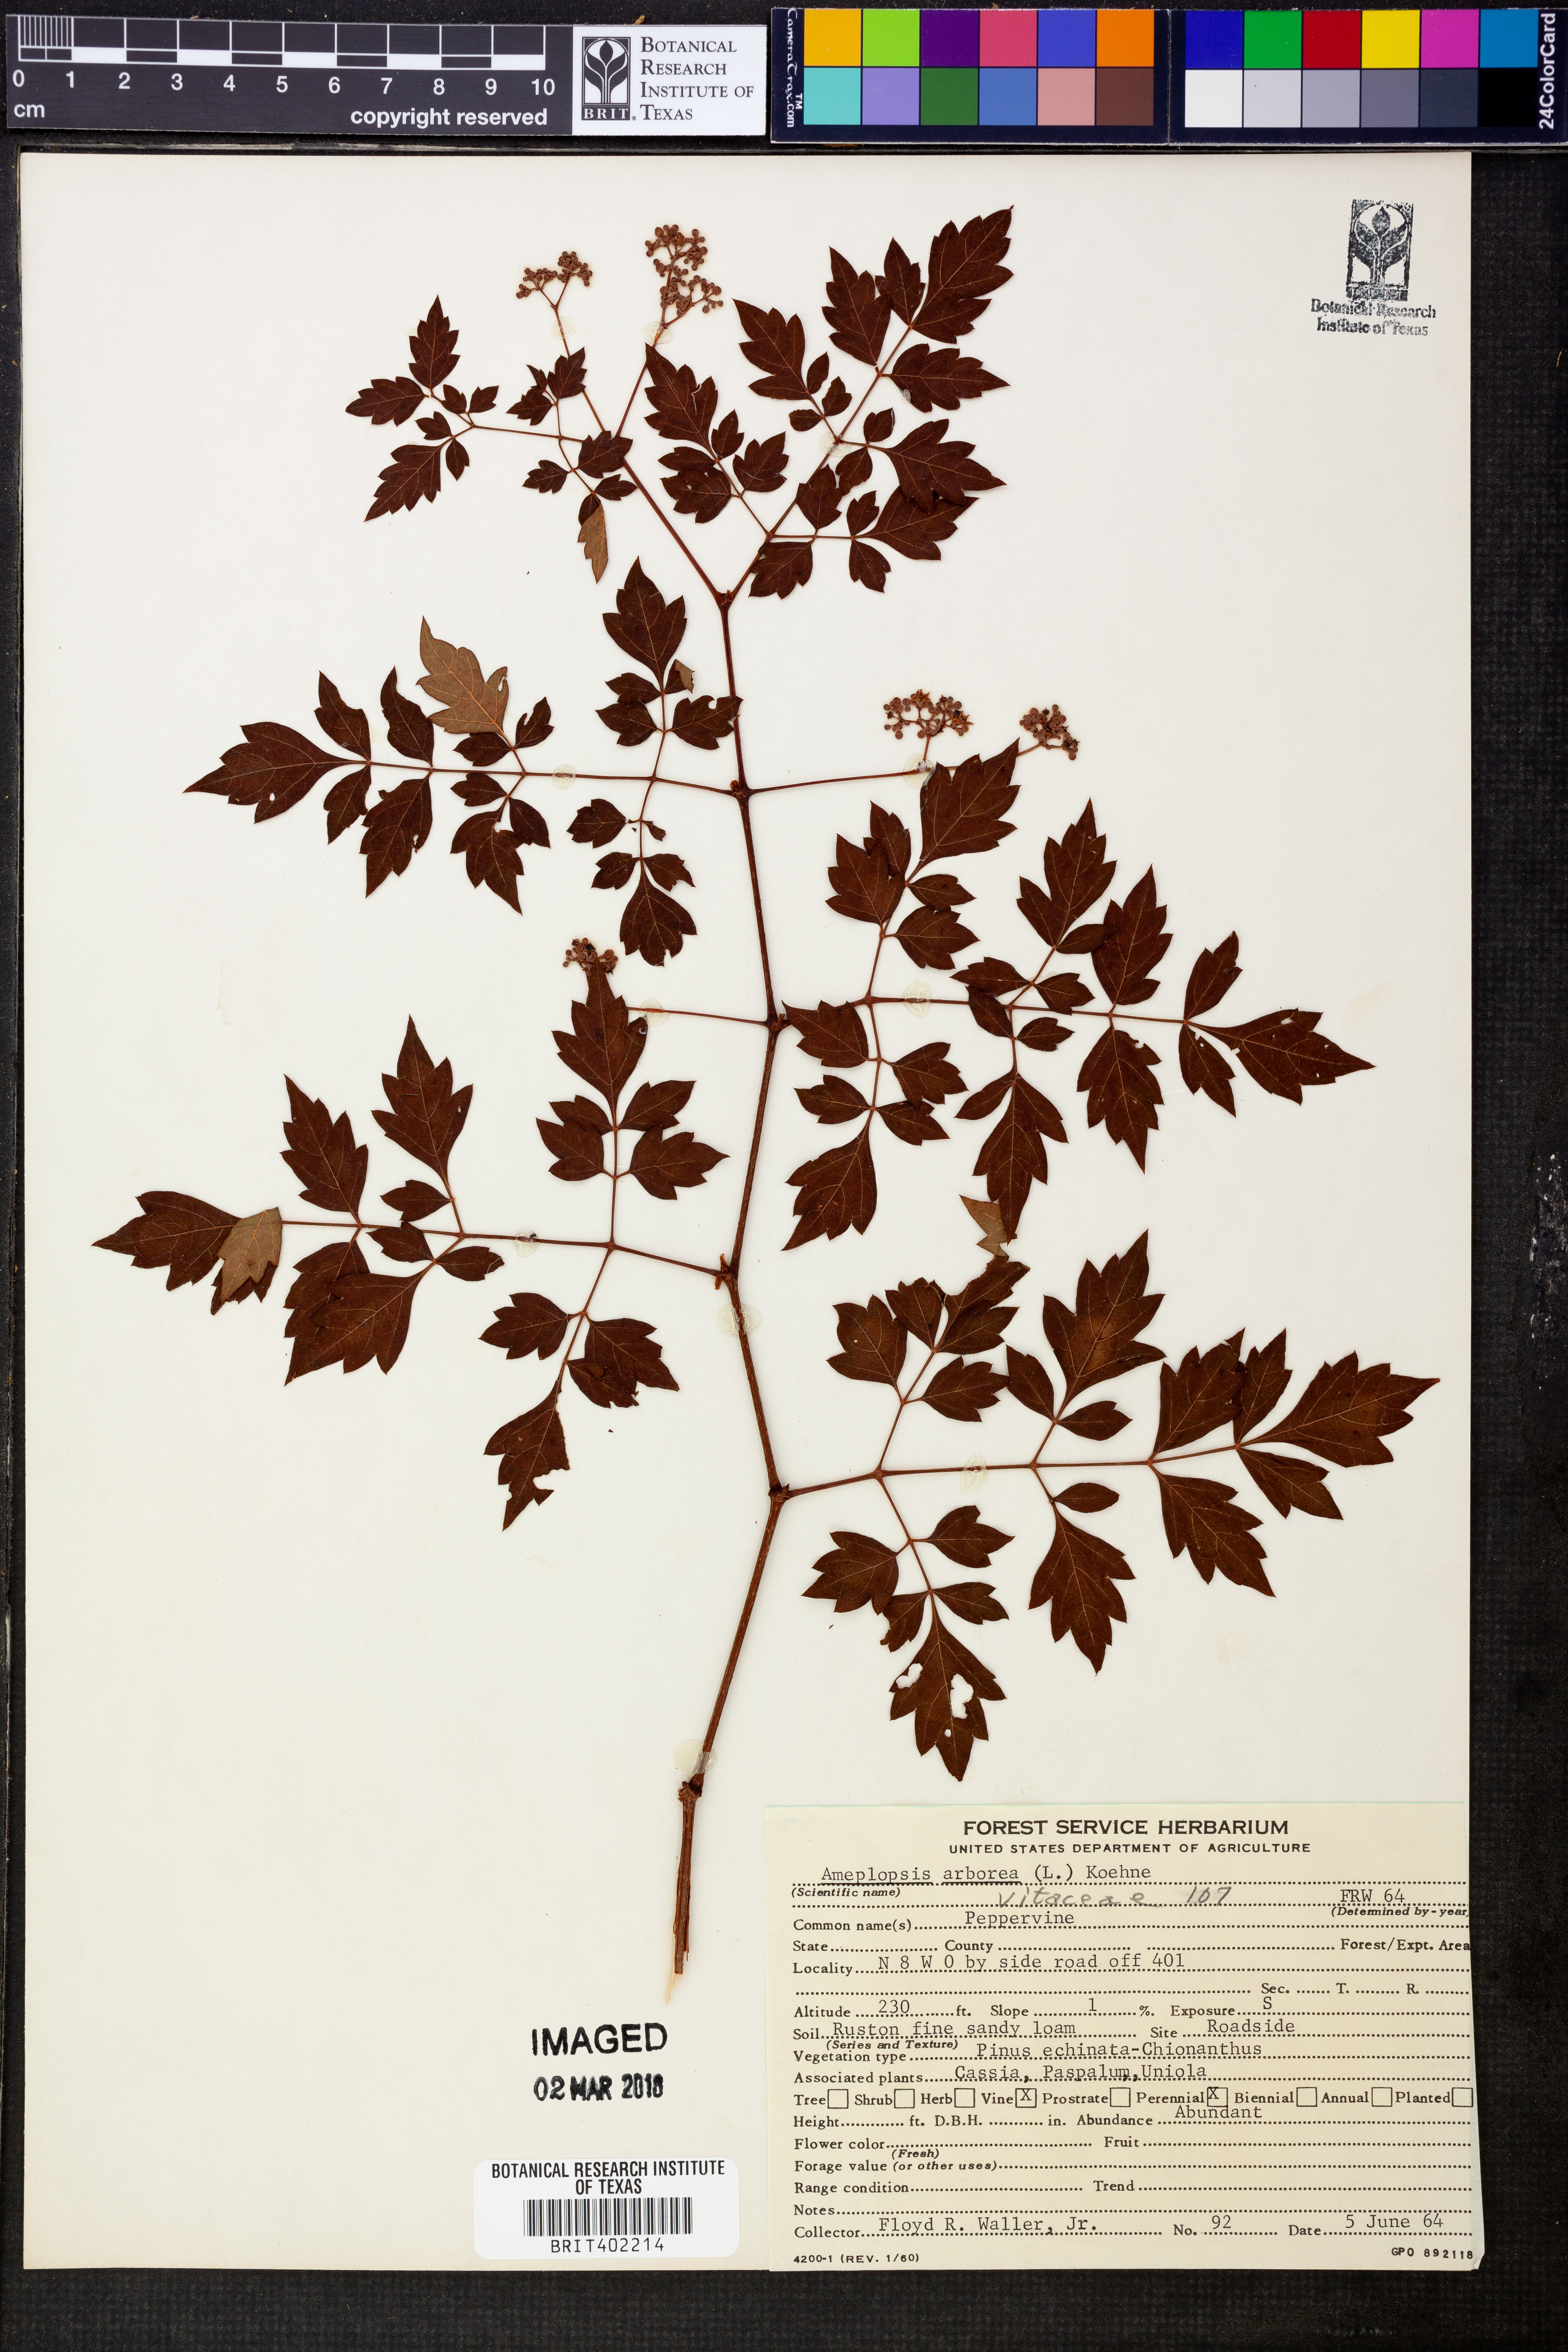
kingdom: Plantae
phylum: Tracheophyta
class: Magnoliopsida
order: Vitales
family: Vitaceae
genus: Nekemias
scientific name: Nekemias arborea
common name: Peppervine
